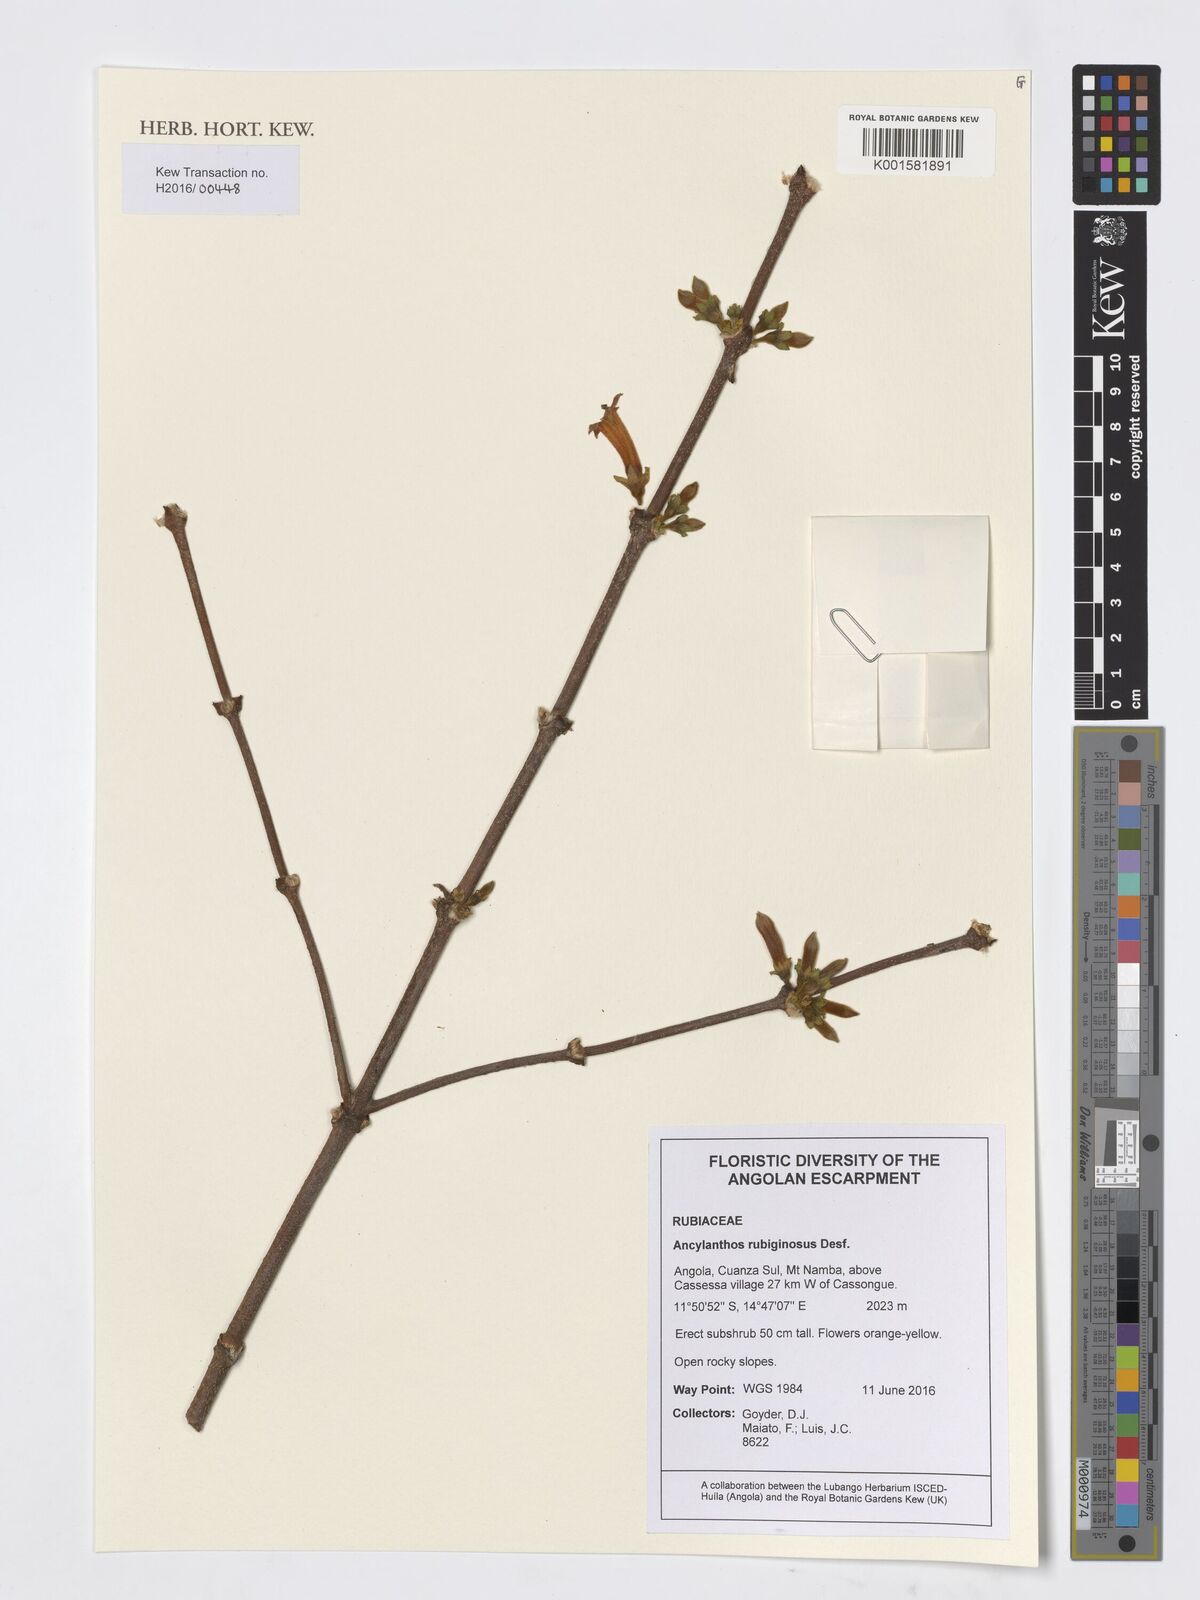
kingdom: Plantae
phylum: Tracheophyta
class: Magnoliopsida
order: Gentianales
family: Rubiaceae
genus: Vangueria
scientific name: Vangueria ferruginea
